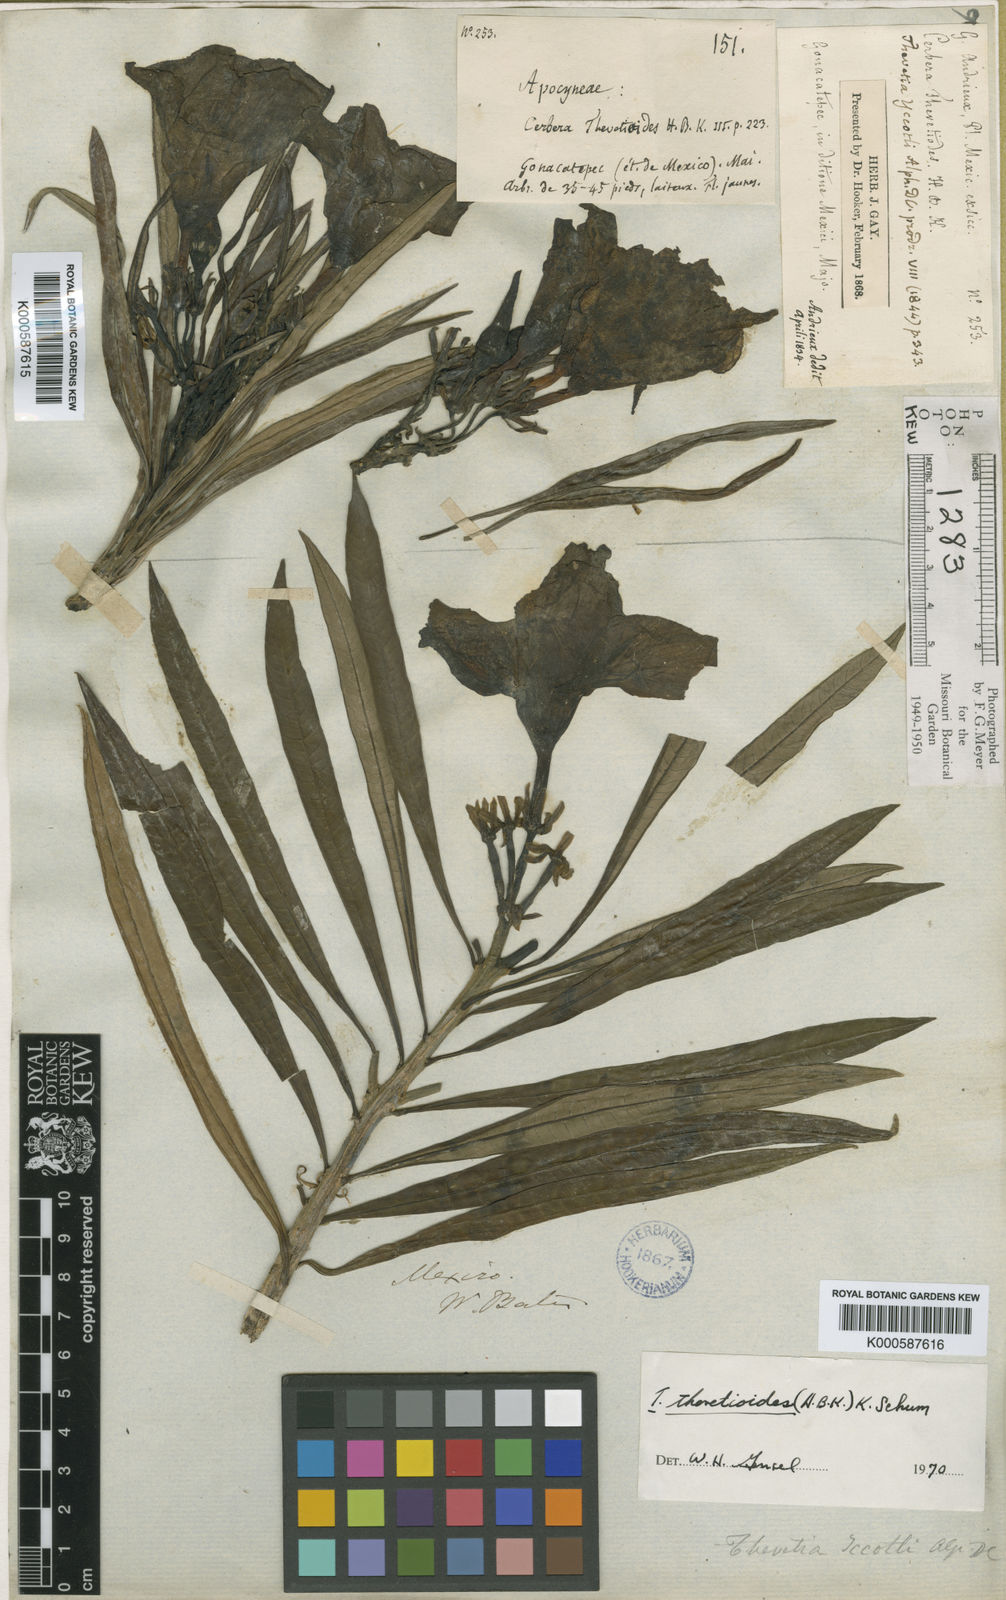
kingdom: Plantae
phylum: Tracheophyta
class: Magnoliopsida
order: Gentianales
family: Apocynaceae
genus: Cascabela
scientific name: Cascabela thevetioides
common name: Yellow oleander
